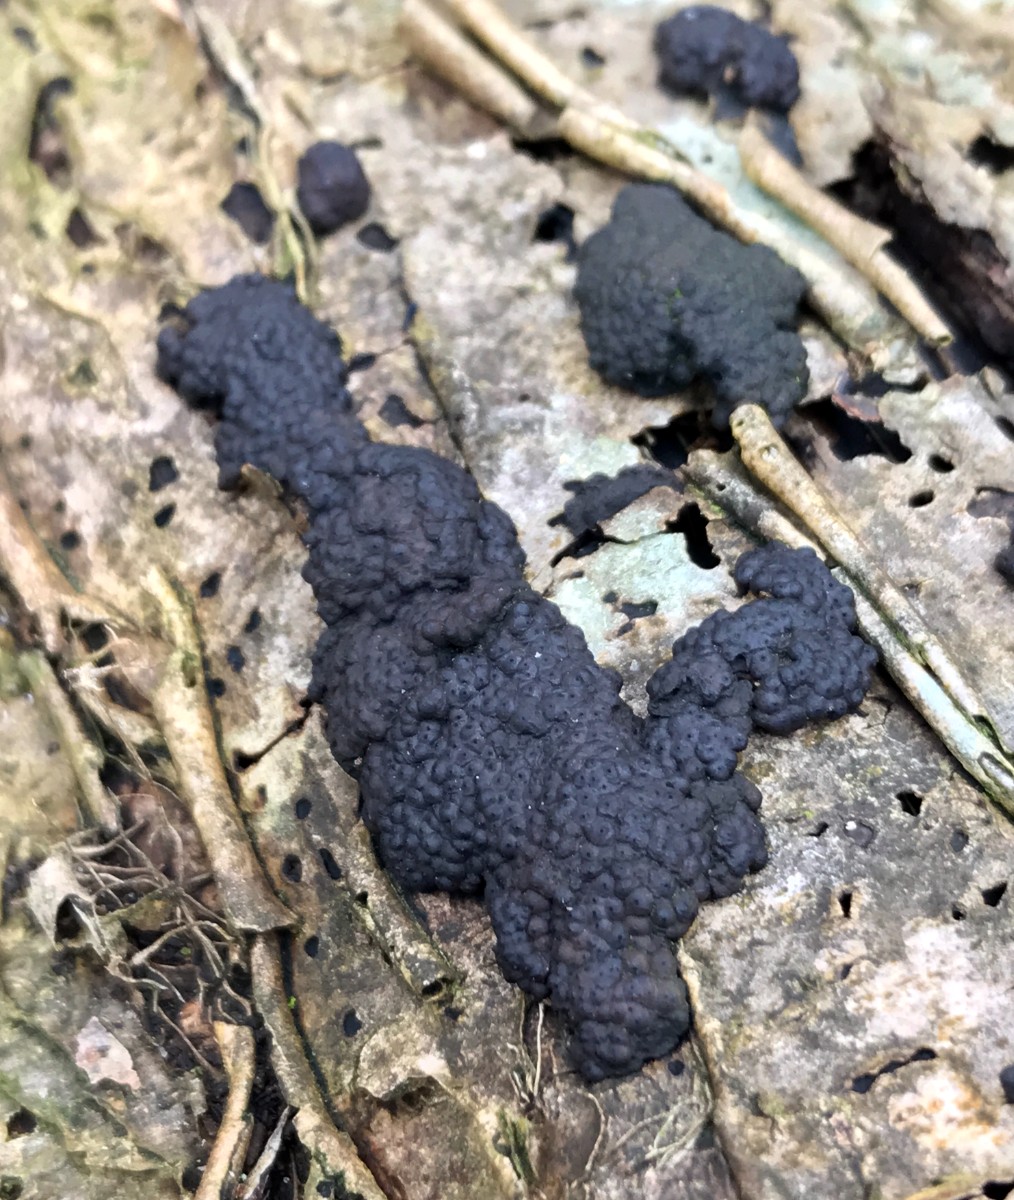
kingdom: Fungi
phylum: Ascomycota
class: Sordariomycetes
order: Xylariales
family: Hypoxylaceae
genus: Jackrogersella
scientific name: Jackrogersella multiformis
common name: foranderlig kulbær
